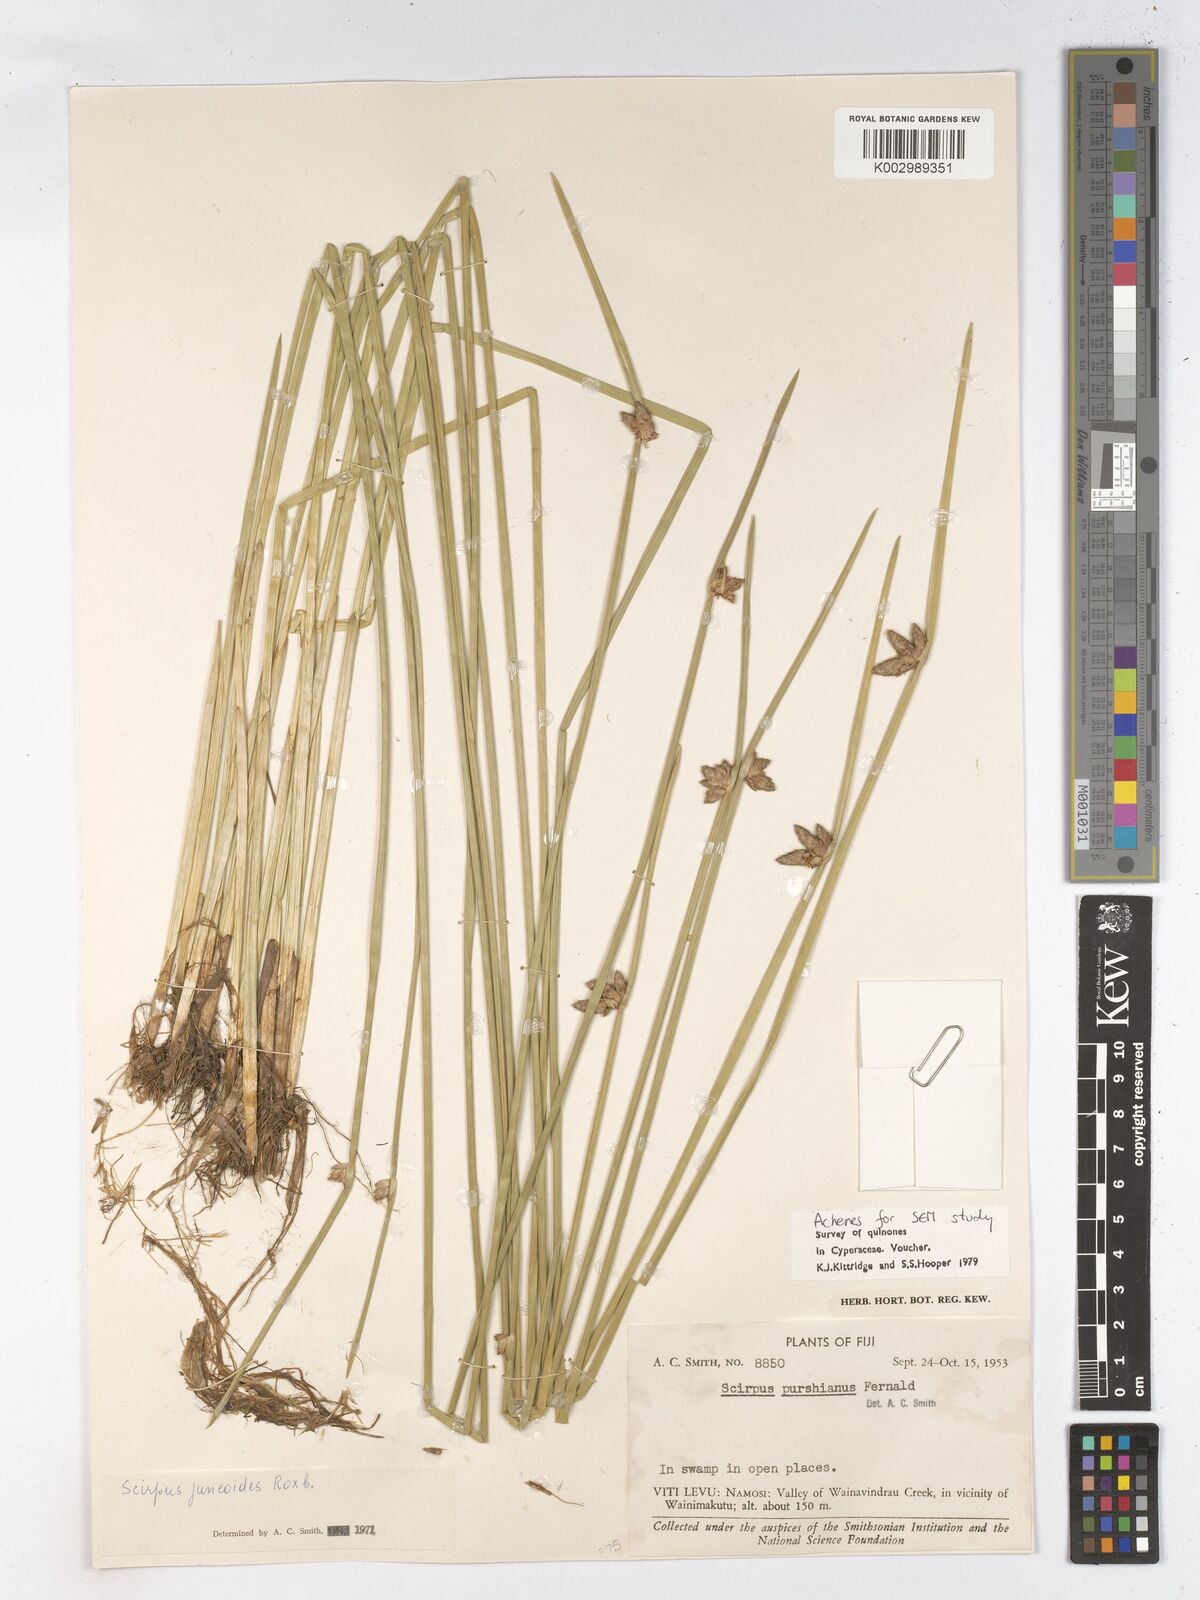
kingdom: Plantae
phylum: Tracheophyta
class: Liliopsida
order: Poales
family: Cyperaceae
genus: Schoenoplectiella
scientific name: Schoenoplectiella juncoides
